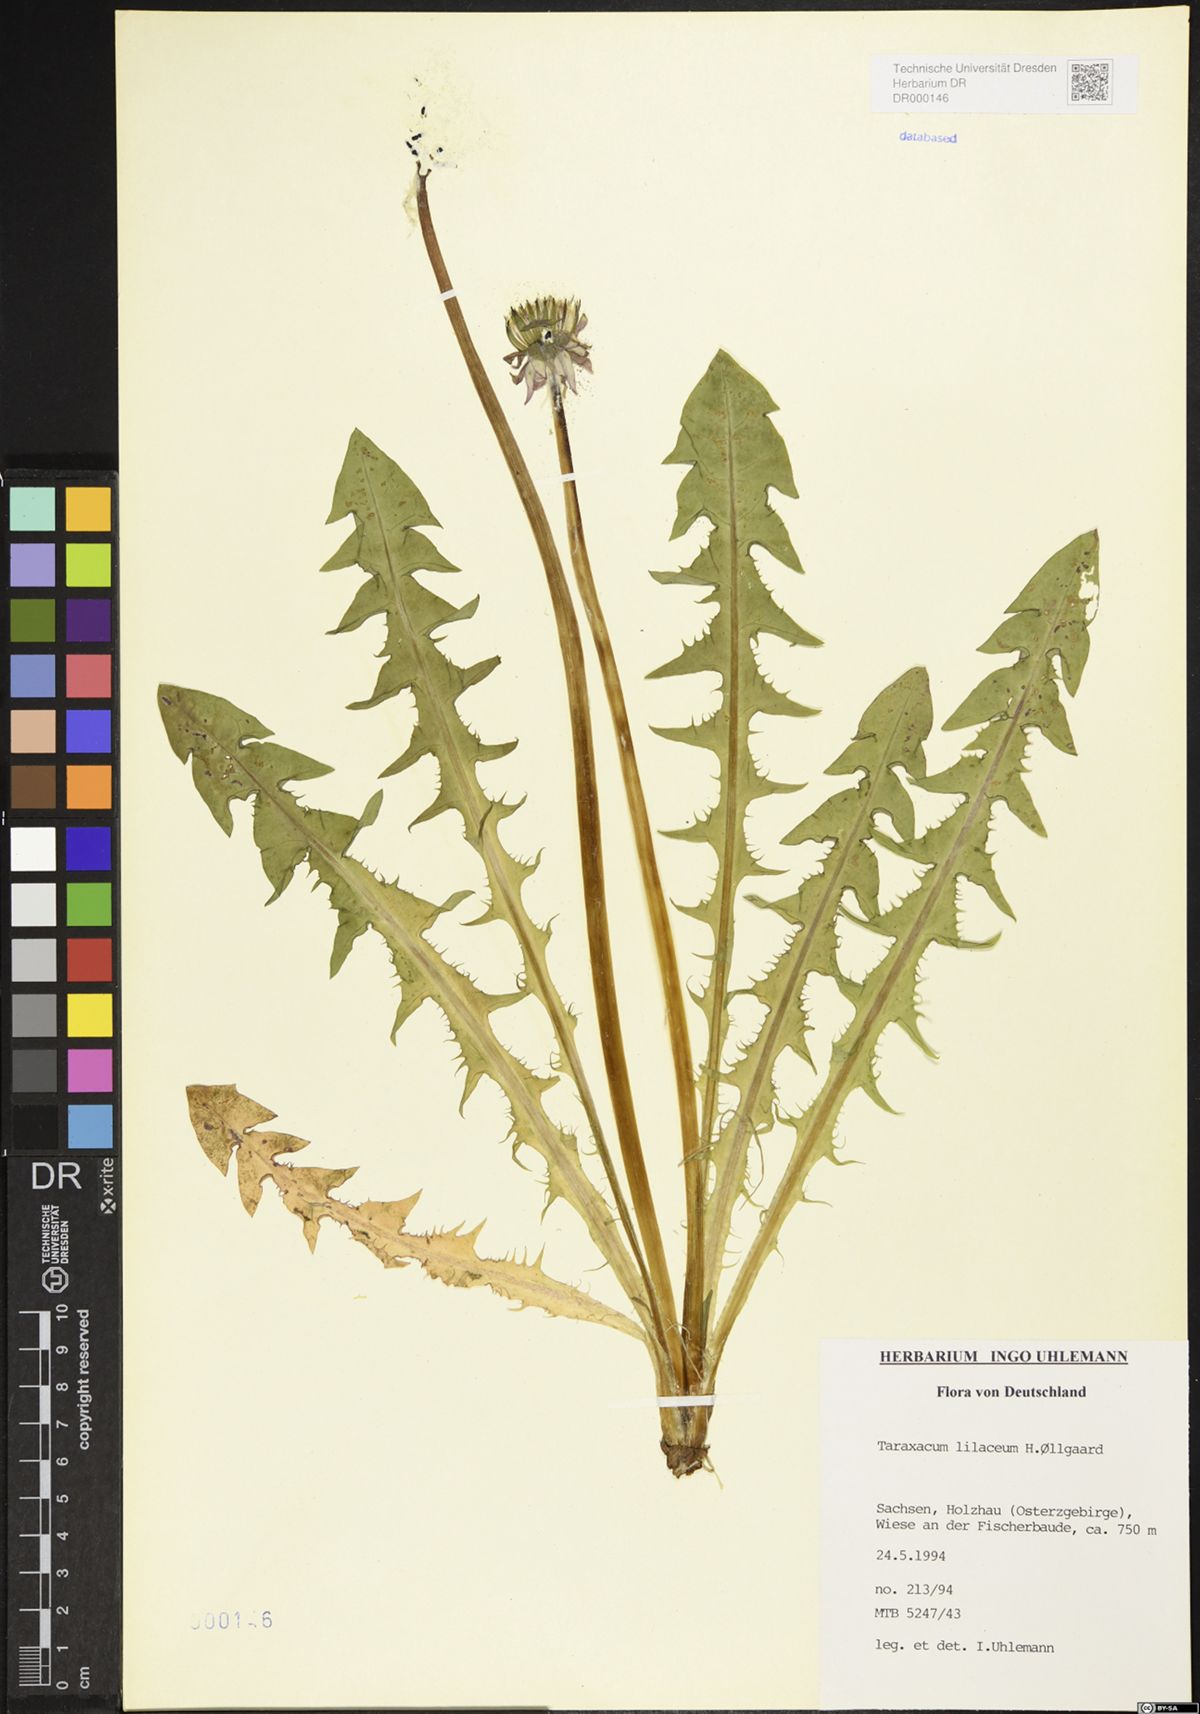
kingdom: Plantae
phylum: Tracheophyta
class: Magnoliopsida
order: Asterales
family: Asteraceae
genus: Taraxacum
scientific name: Taraxacum floccosum
